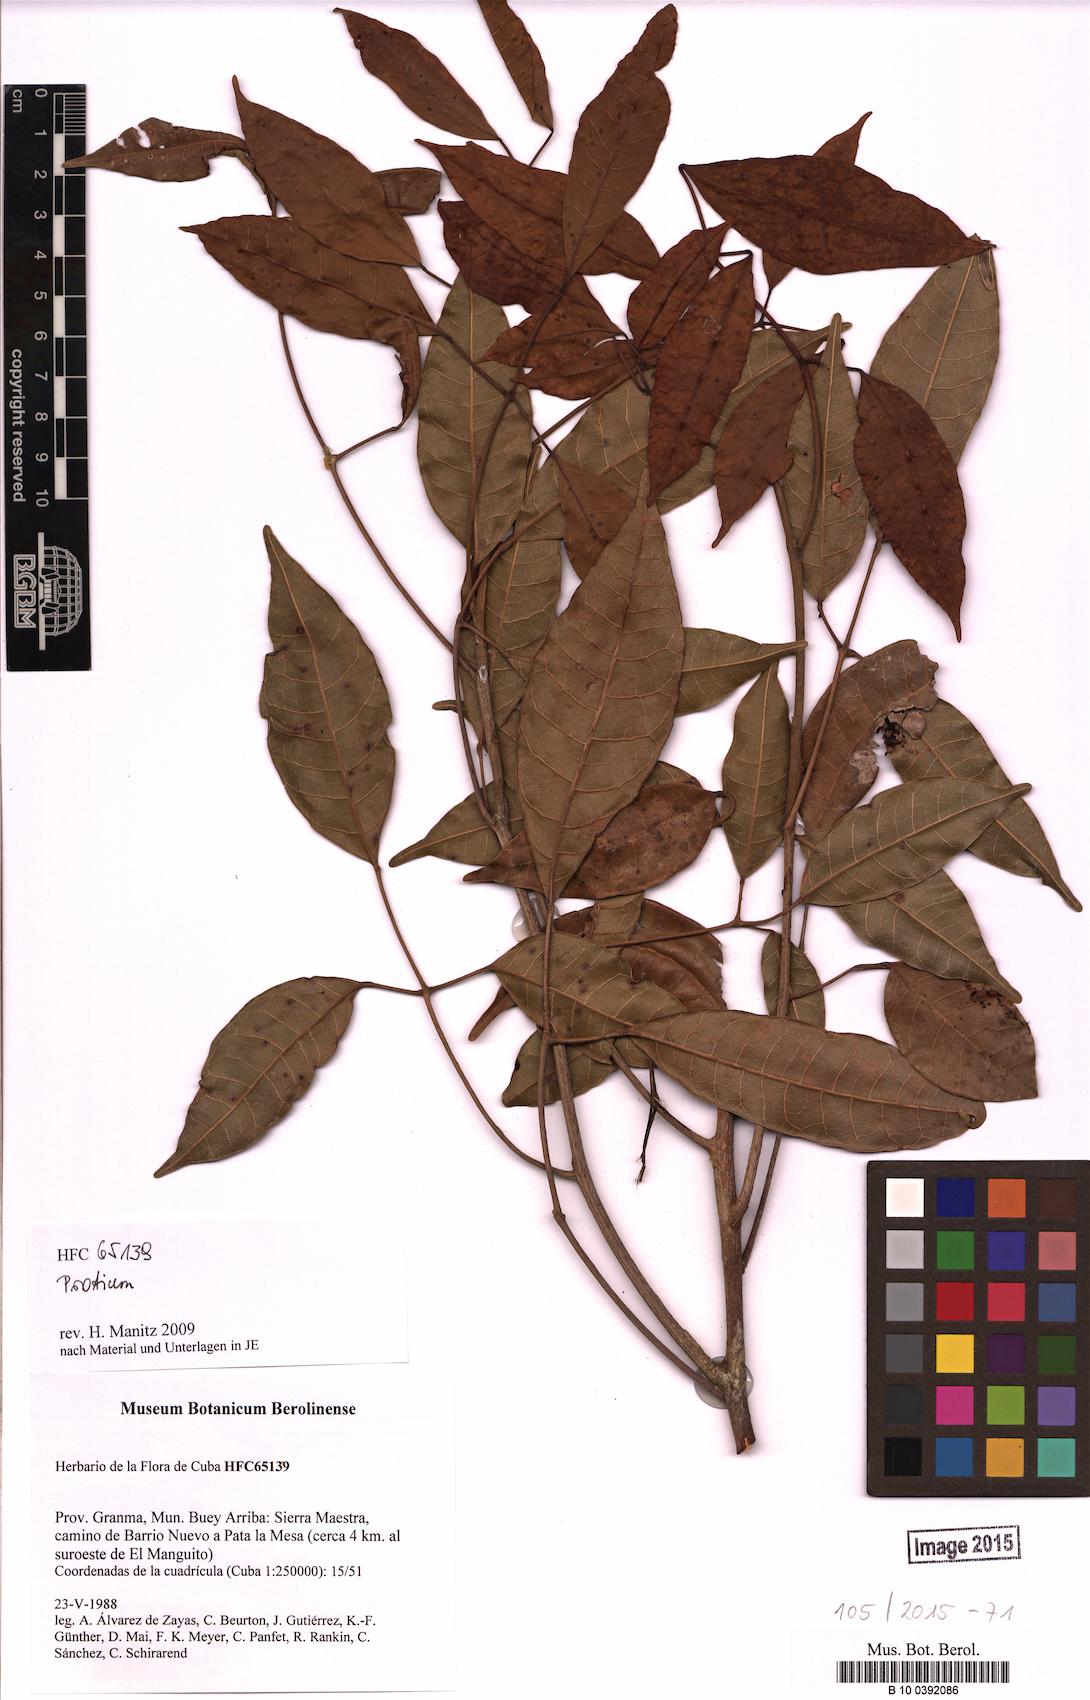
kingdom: Plantae
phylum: Tracheophyta
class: Magnoliopsida
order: Sapindales
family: Burseraceae
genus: Protium
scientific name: Protium
